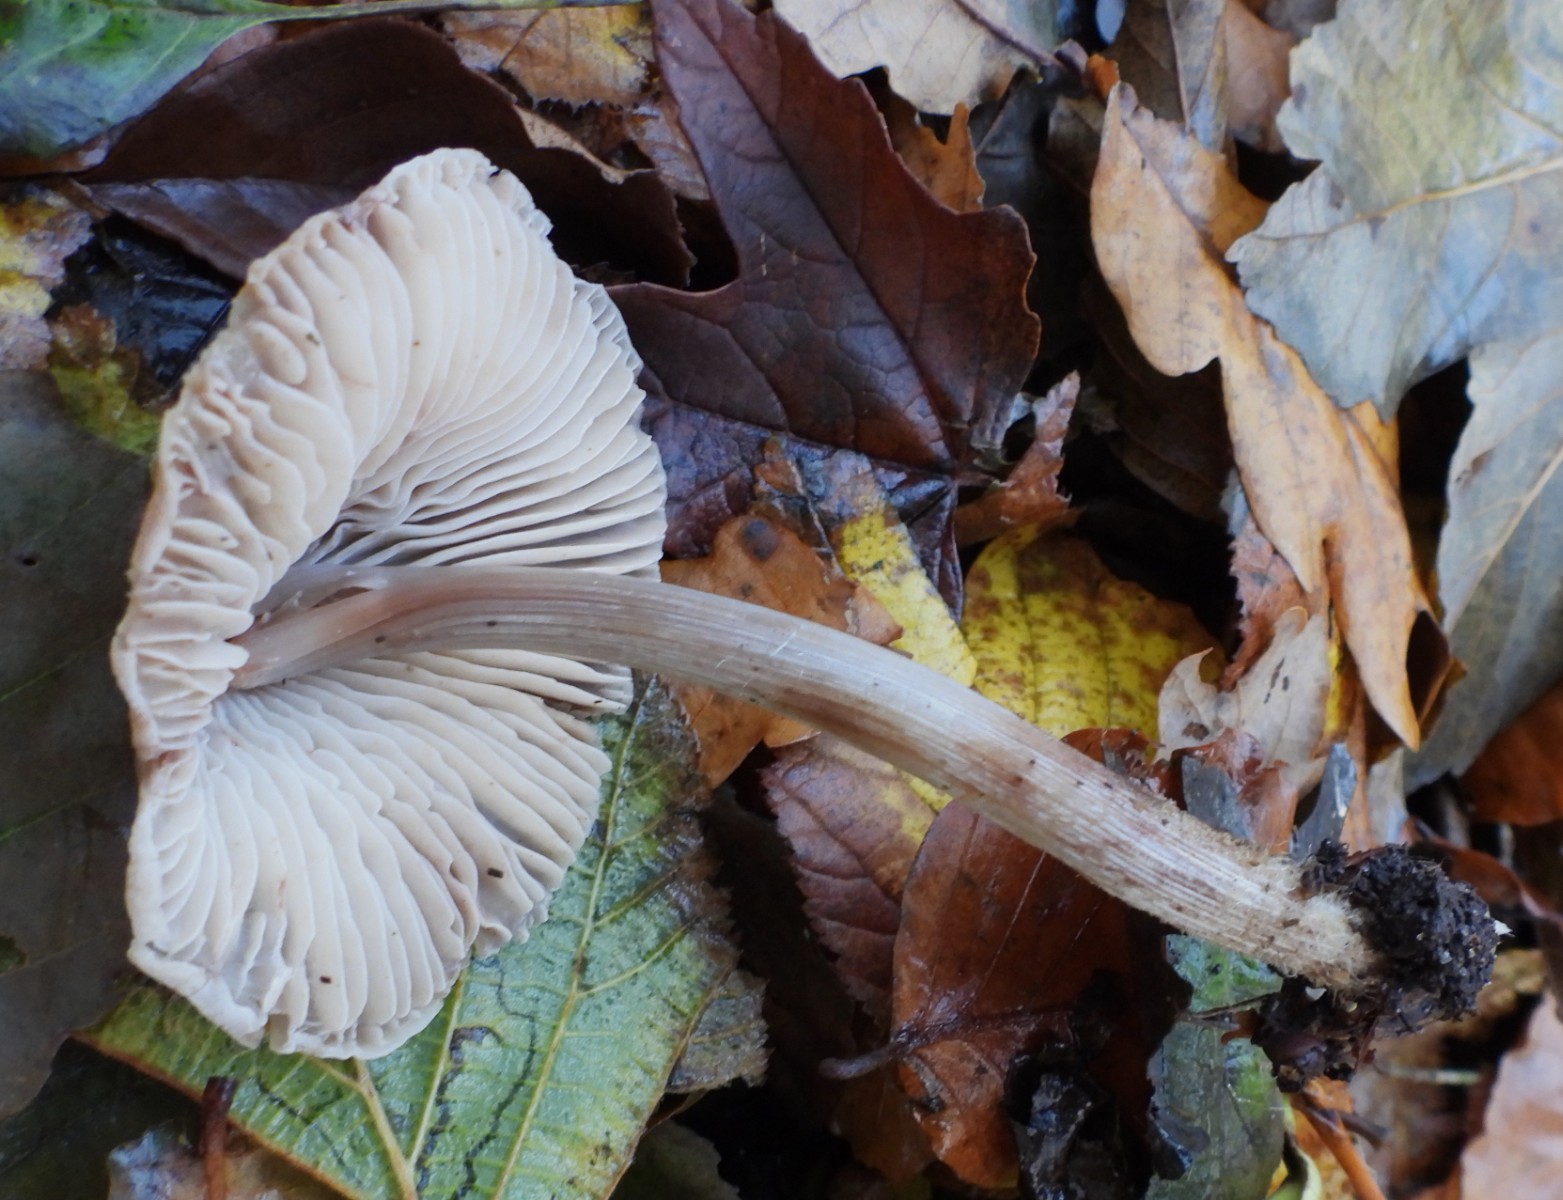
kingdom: Fungi
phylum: Basidiomycota
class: Agaricomycetes
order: Agaricales
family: Mycenaceae
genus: Mycena
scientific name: Mycena polygramma
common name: mangestribet huesvamp
